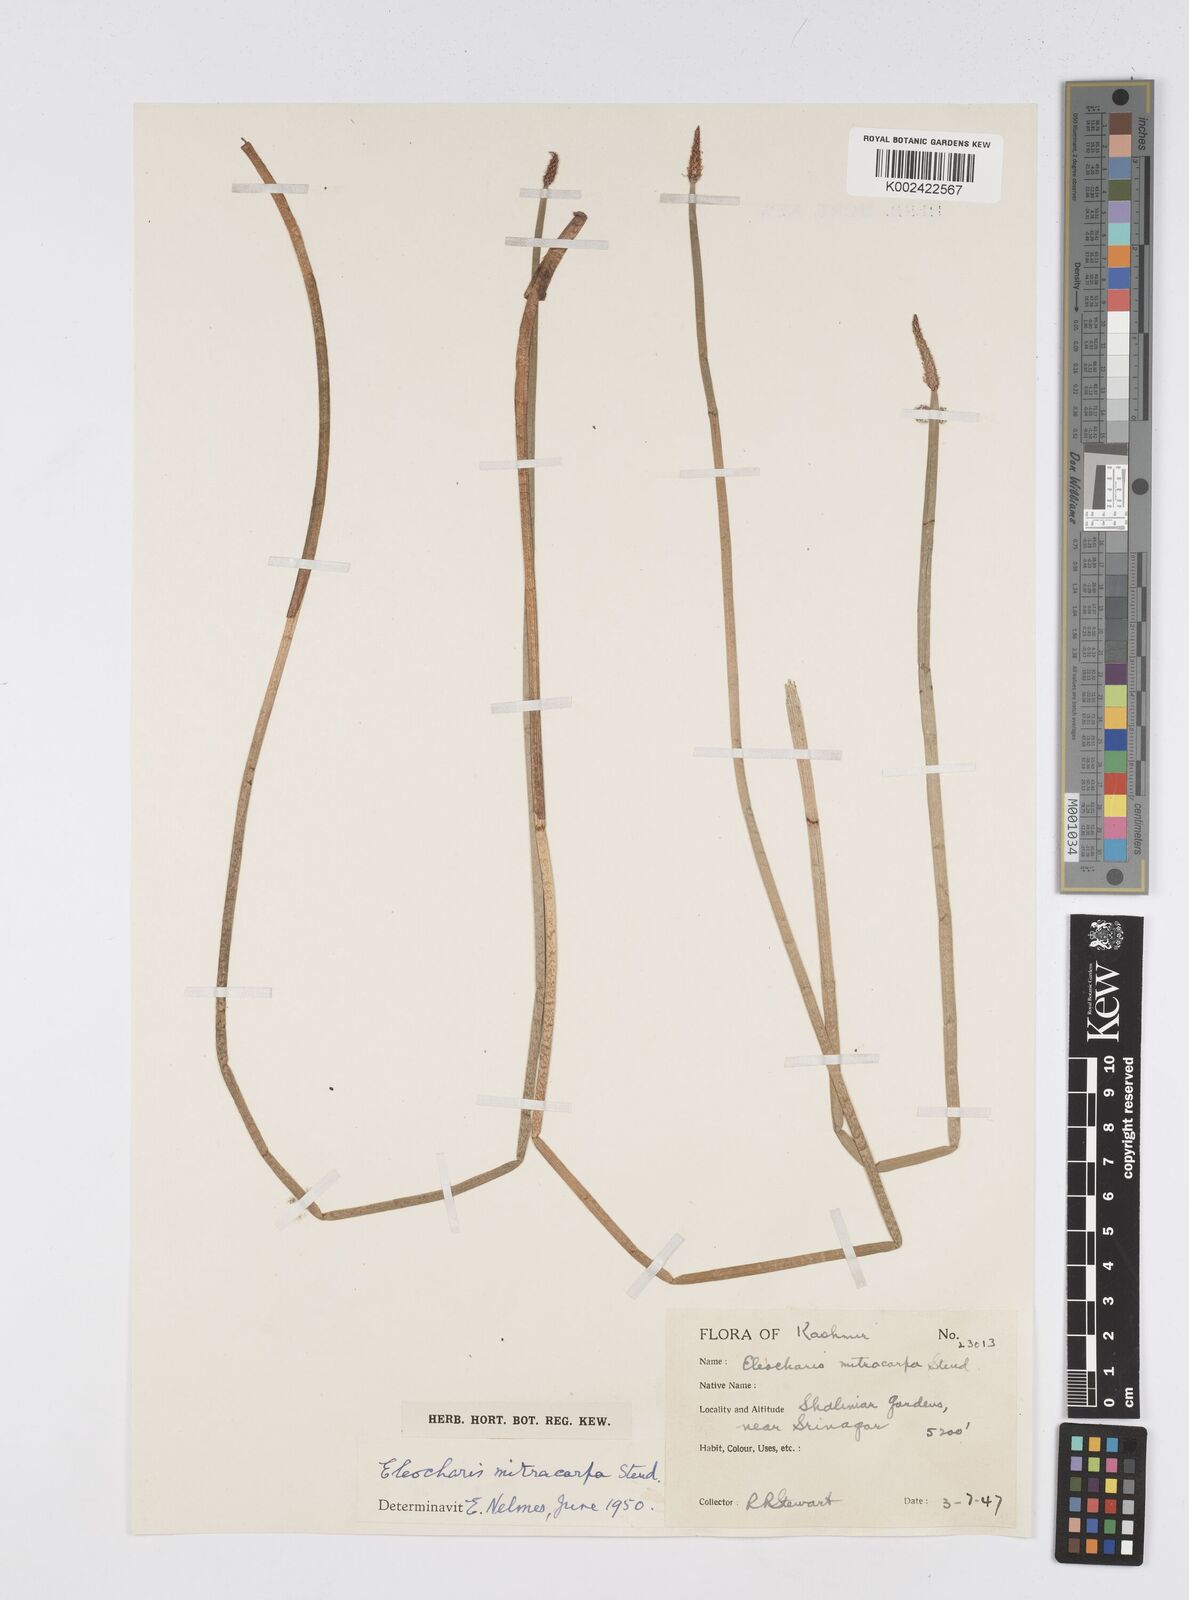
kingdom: Plantae
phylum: Tracheophyta
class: Liliopsida
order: Poales
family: Cyperaceae
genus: Eleocharis
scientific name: Eleocharis mitracarpa
